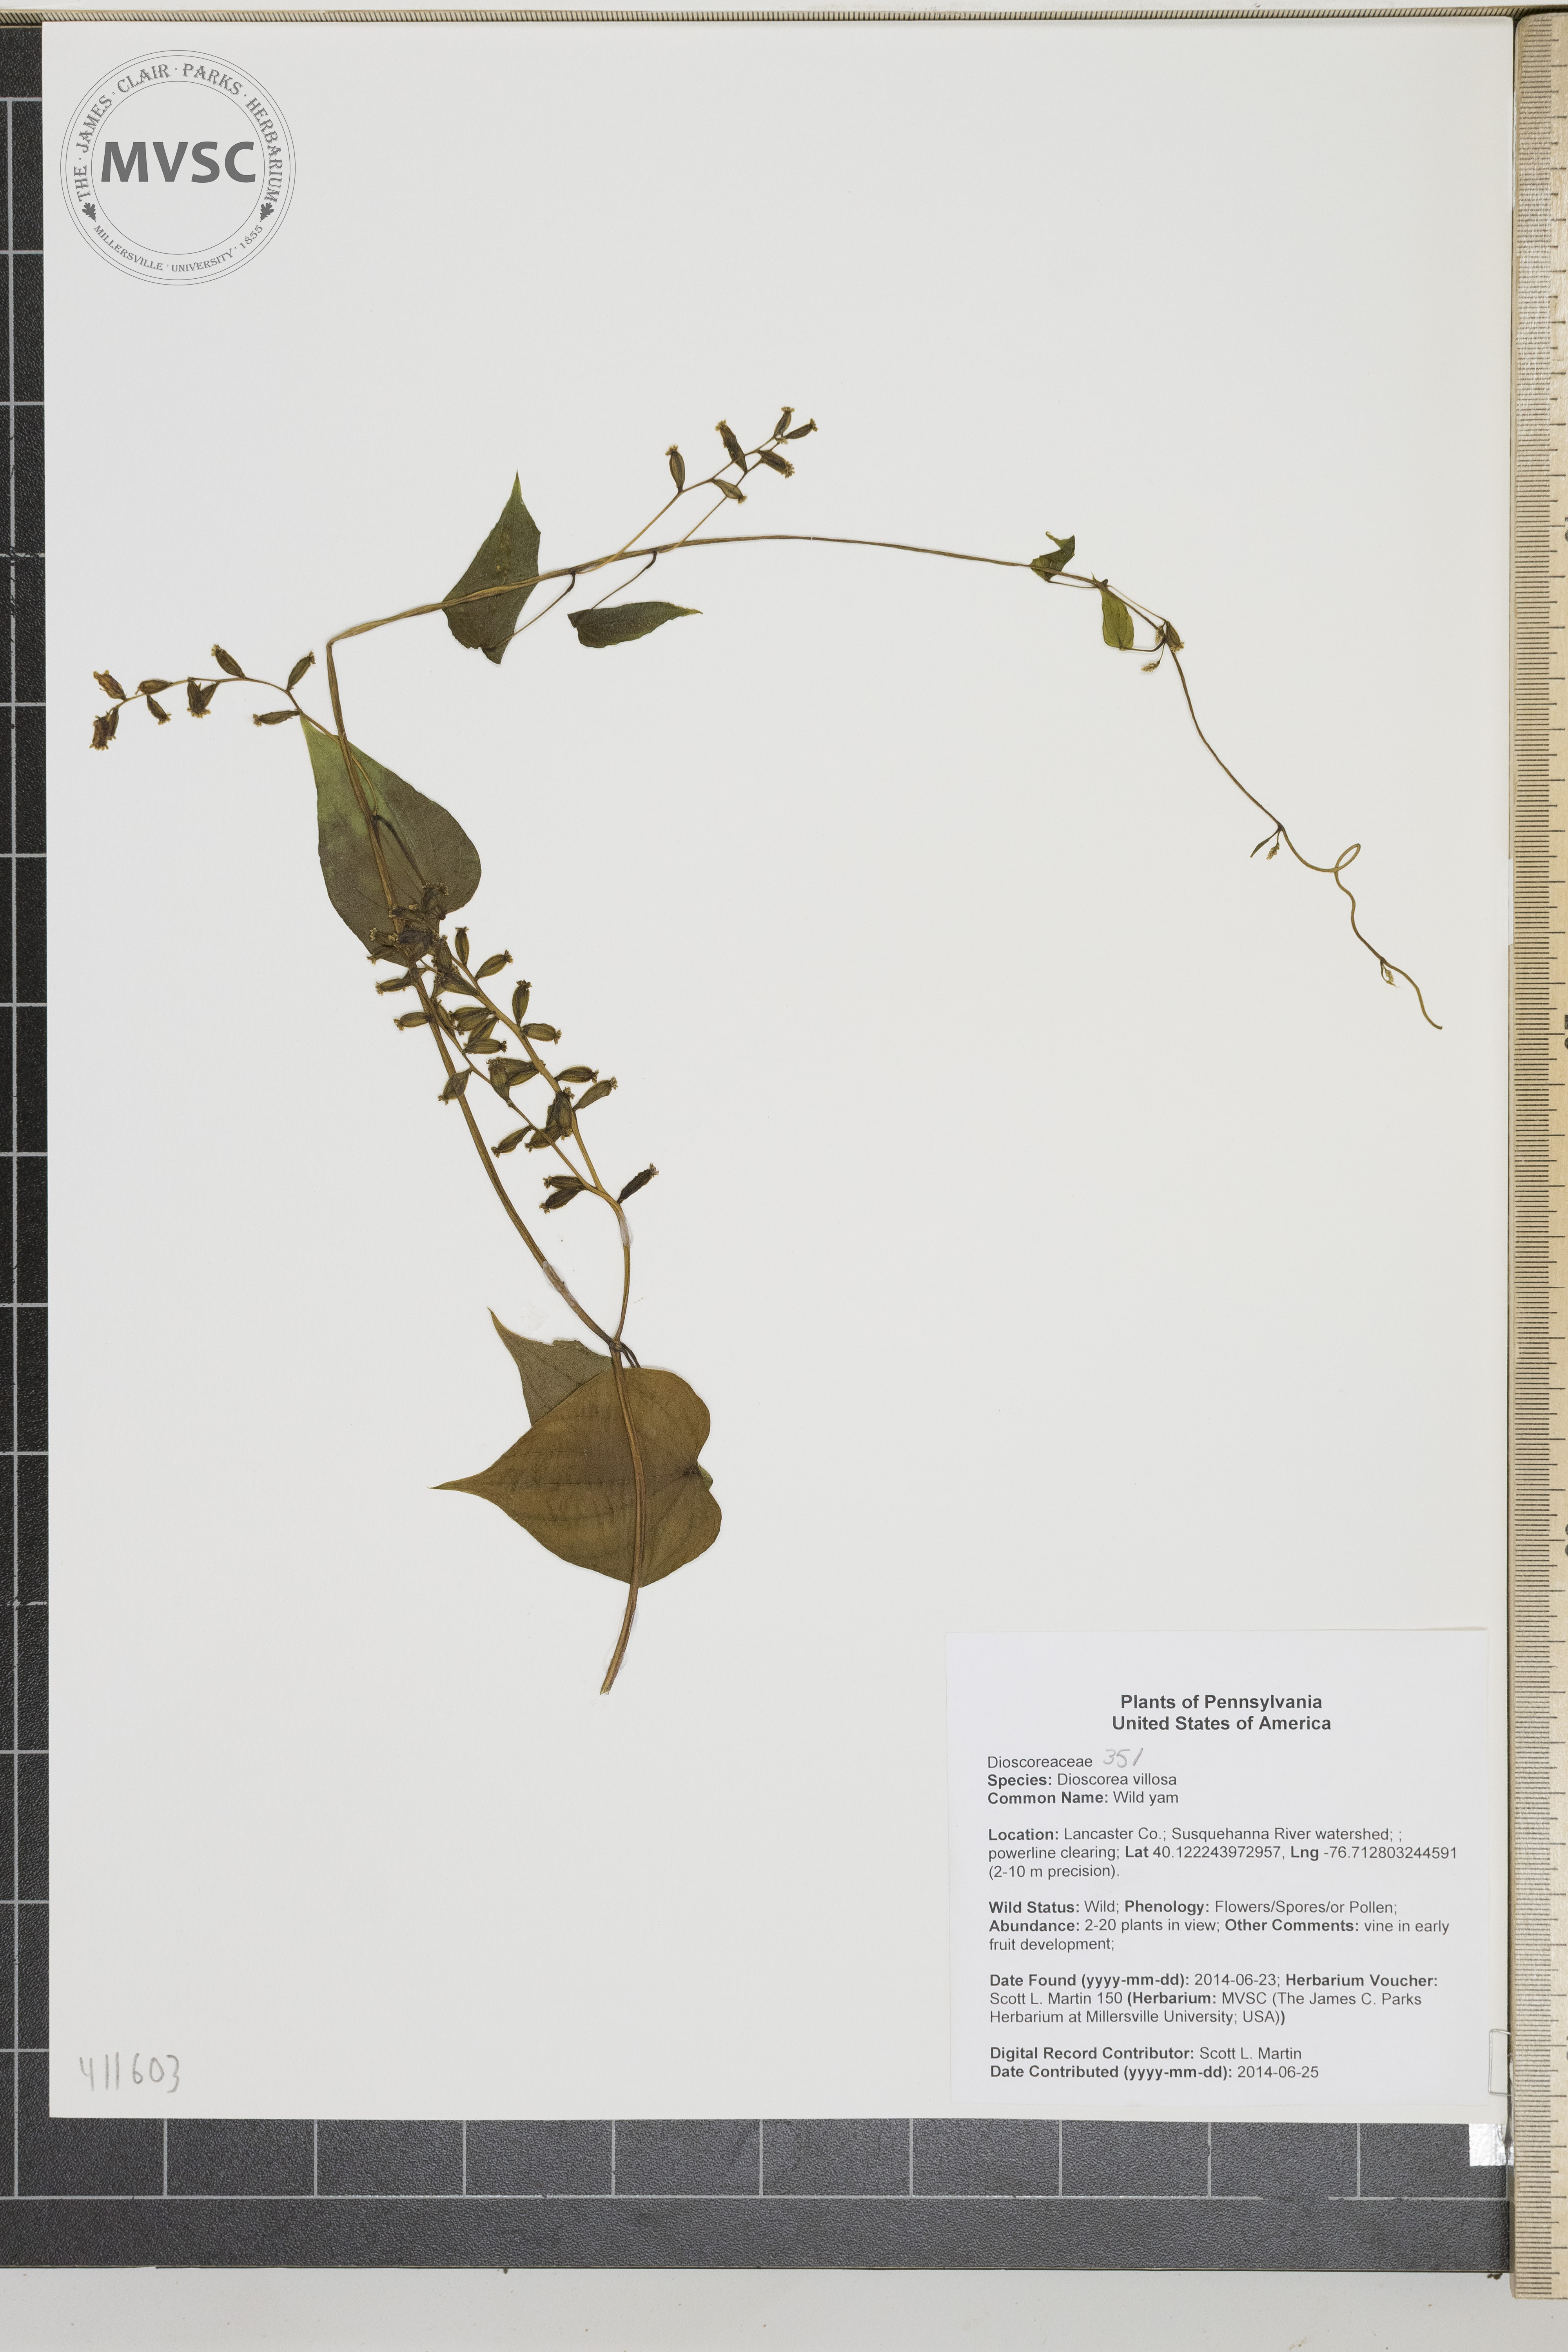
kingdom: Plantae
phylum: Tracheophyta
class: Liliopsida
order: Dioscoreales
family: Dioscoreaceae
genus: Dioscorea
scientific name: Dioscorea villosa
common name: Wild yam
